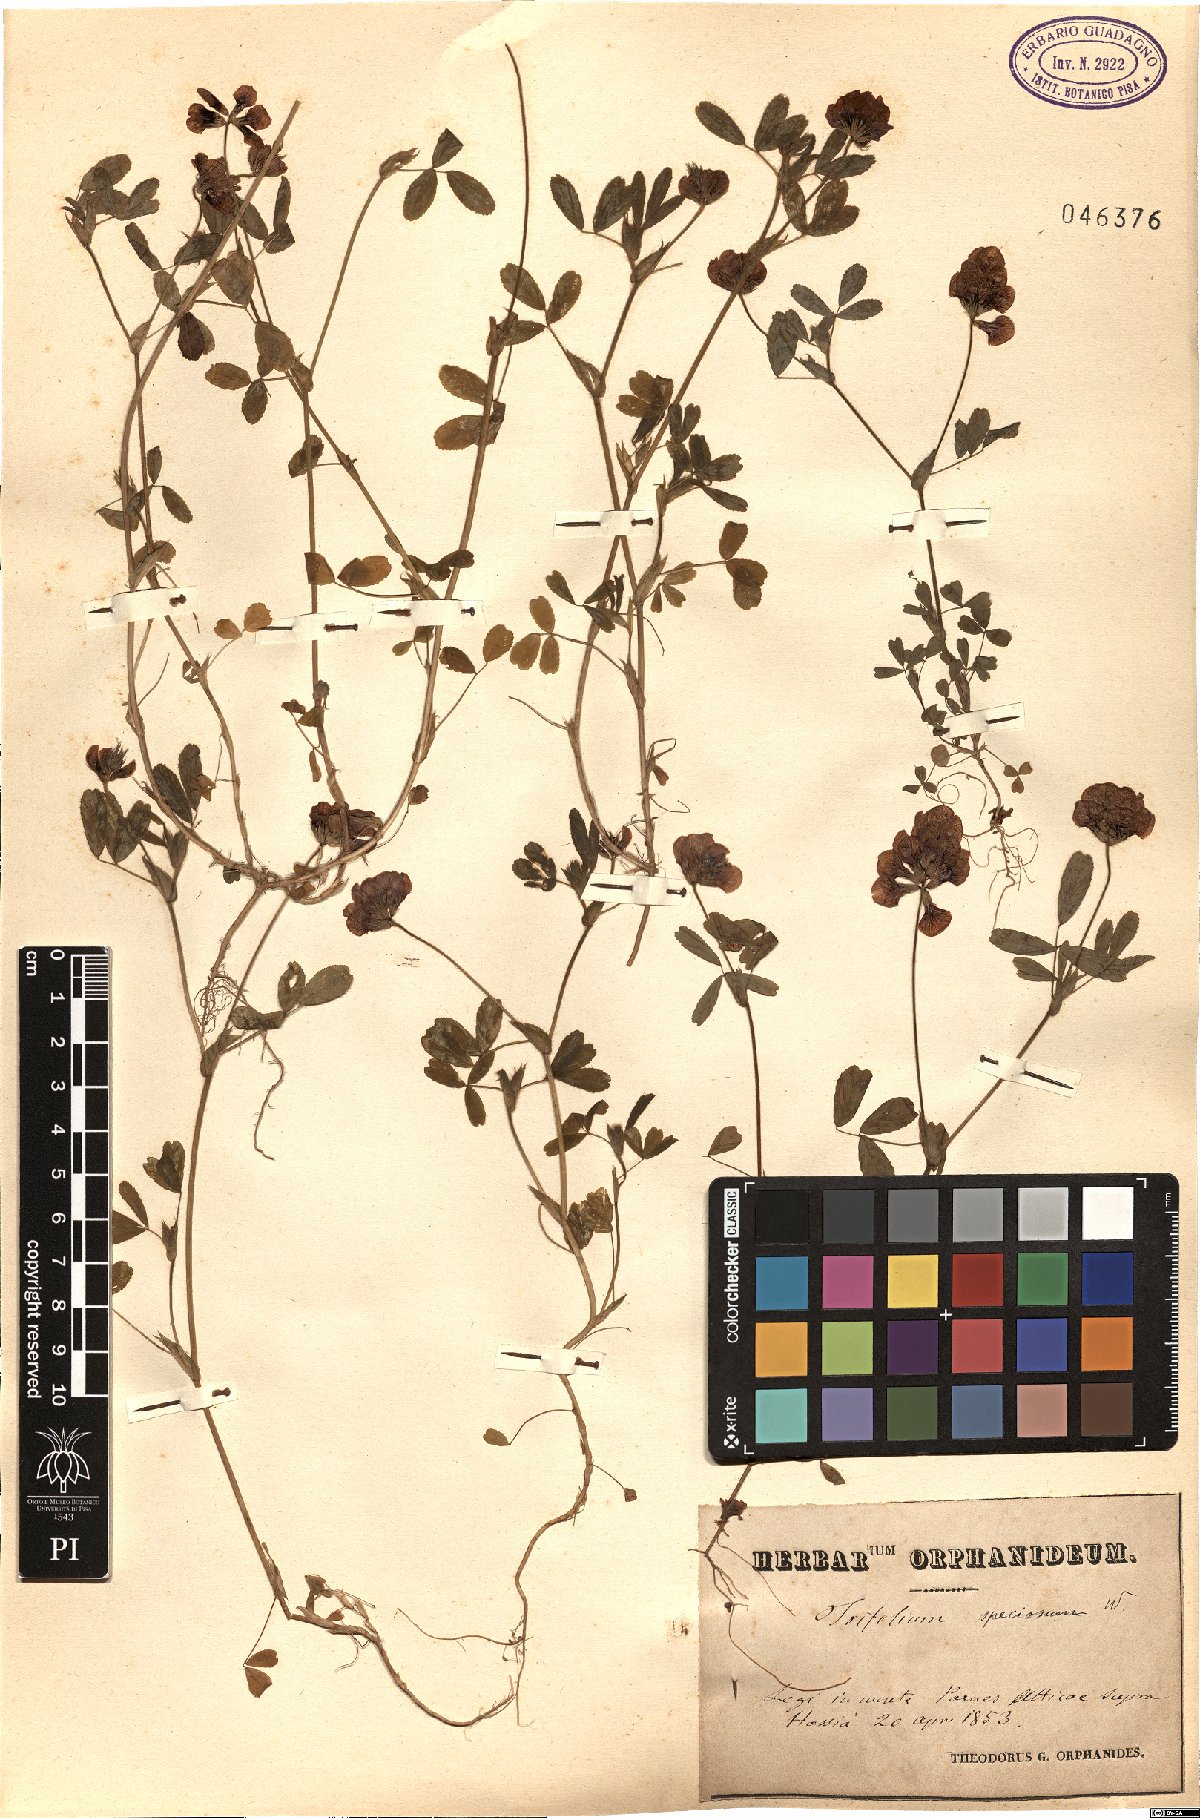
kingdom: Plantae
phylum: Tracheophyta
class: Magnoliopsida
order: Fabales
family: Fabaceae
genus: Trifolium
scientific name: Trifolium grandiflorum
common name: Large-flower hop clover
